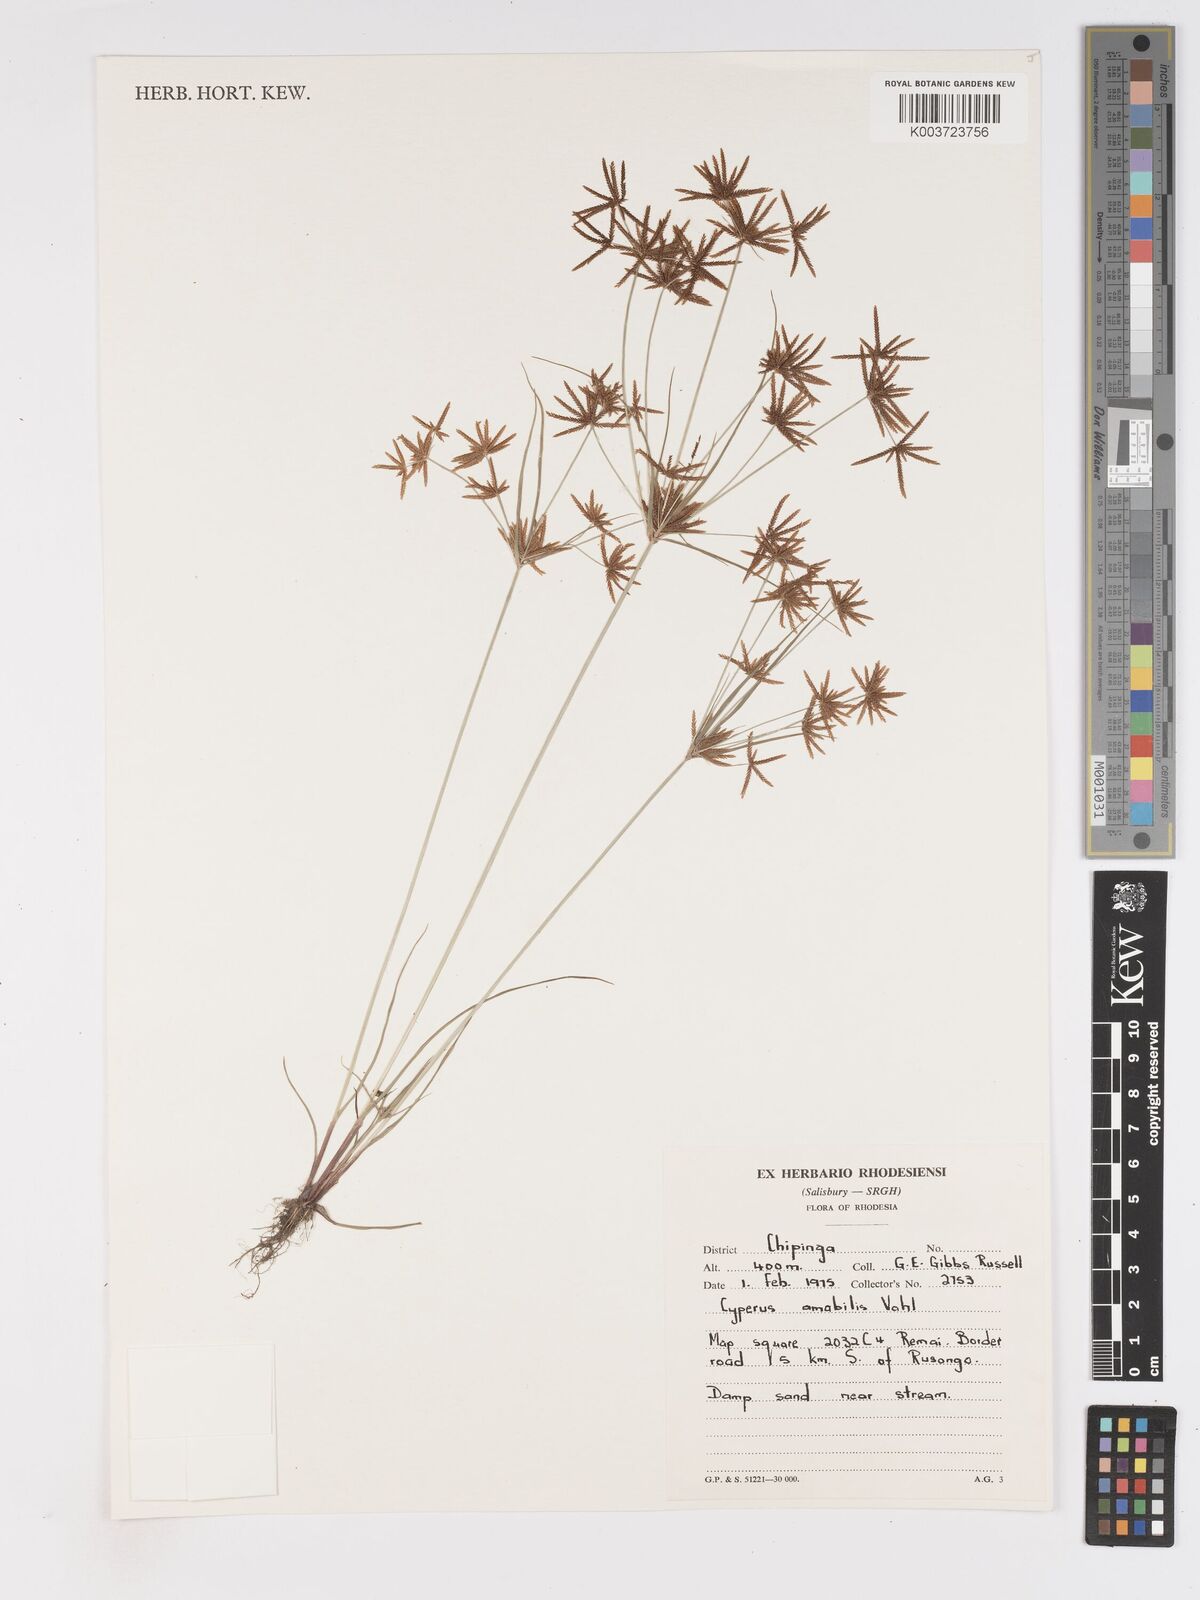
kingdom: Plantae
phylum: Tracheophyta
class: Liliopsida
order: Poales
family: Cyperaceae
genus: Cyperus
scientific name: Cyperus amabilis
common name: Foothill flat sedge
